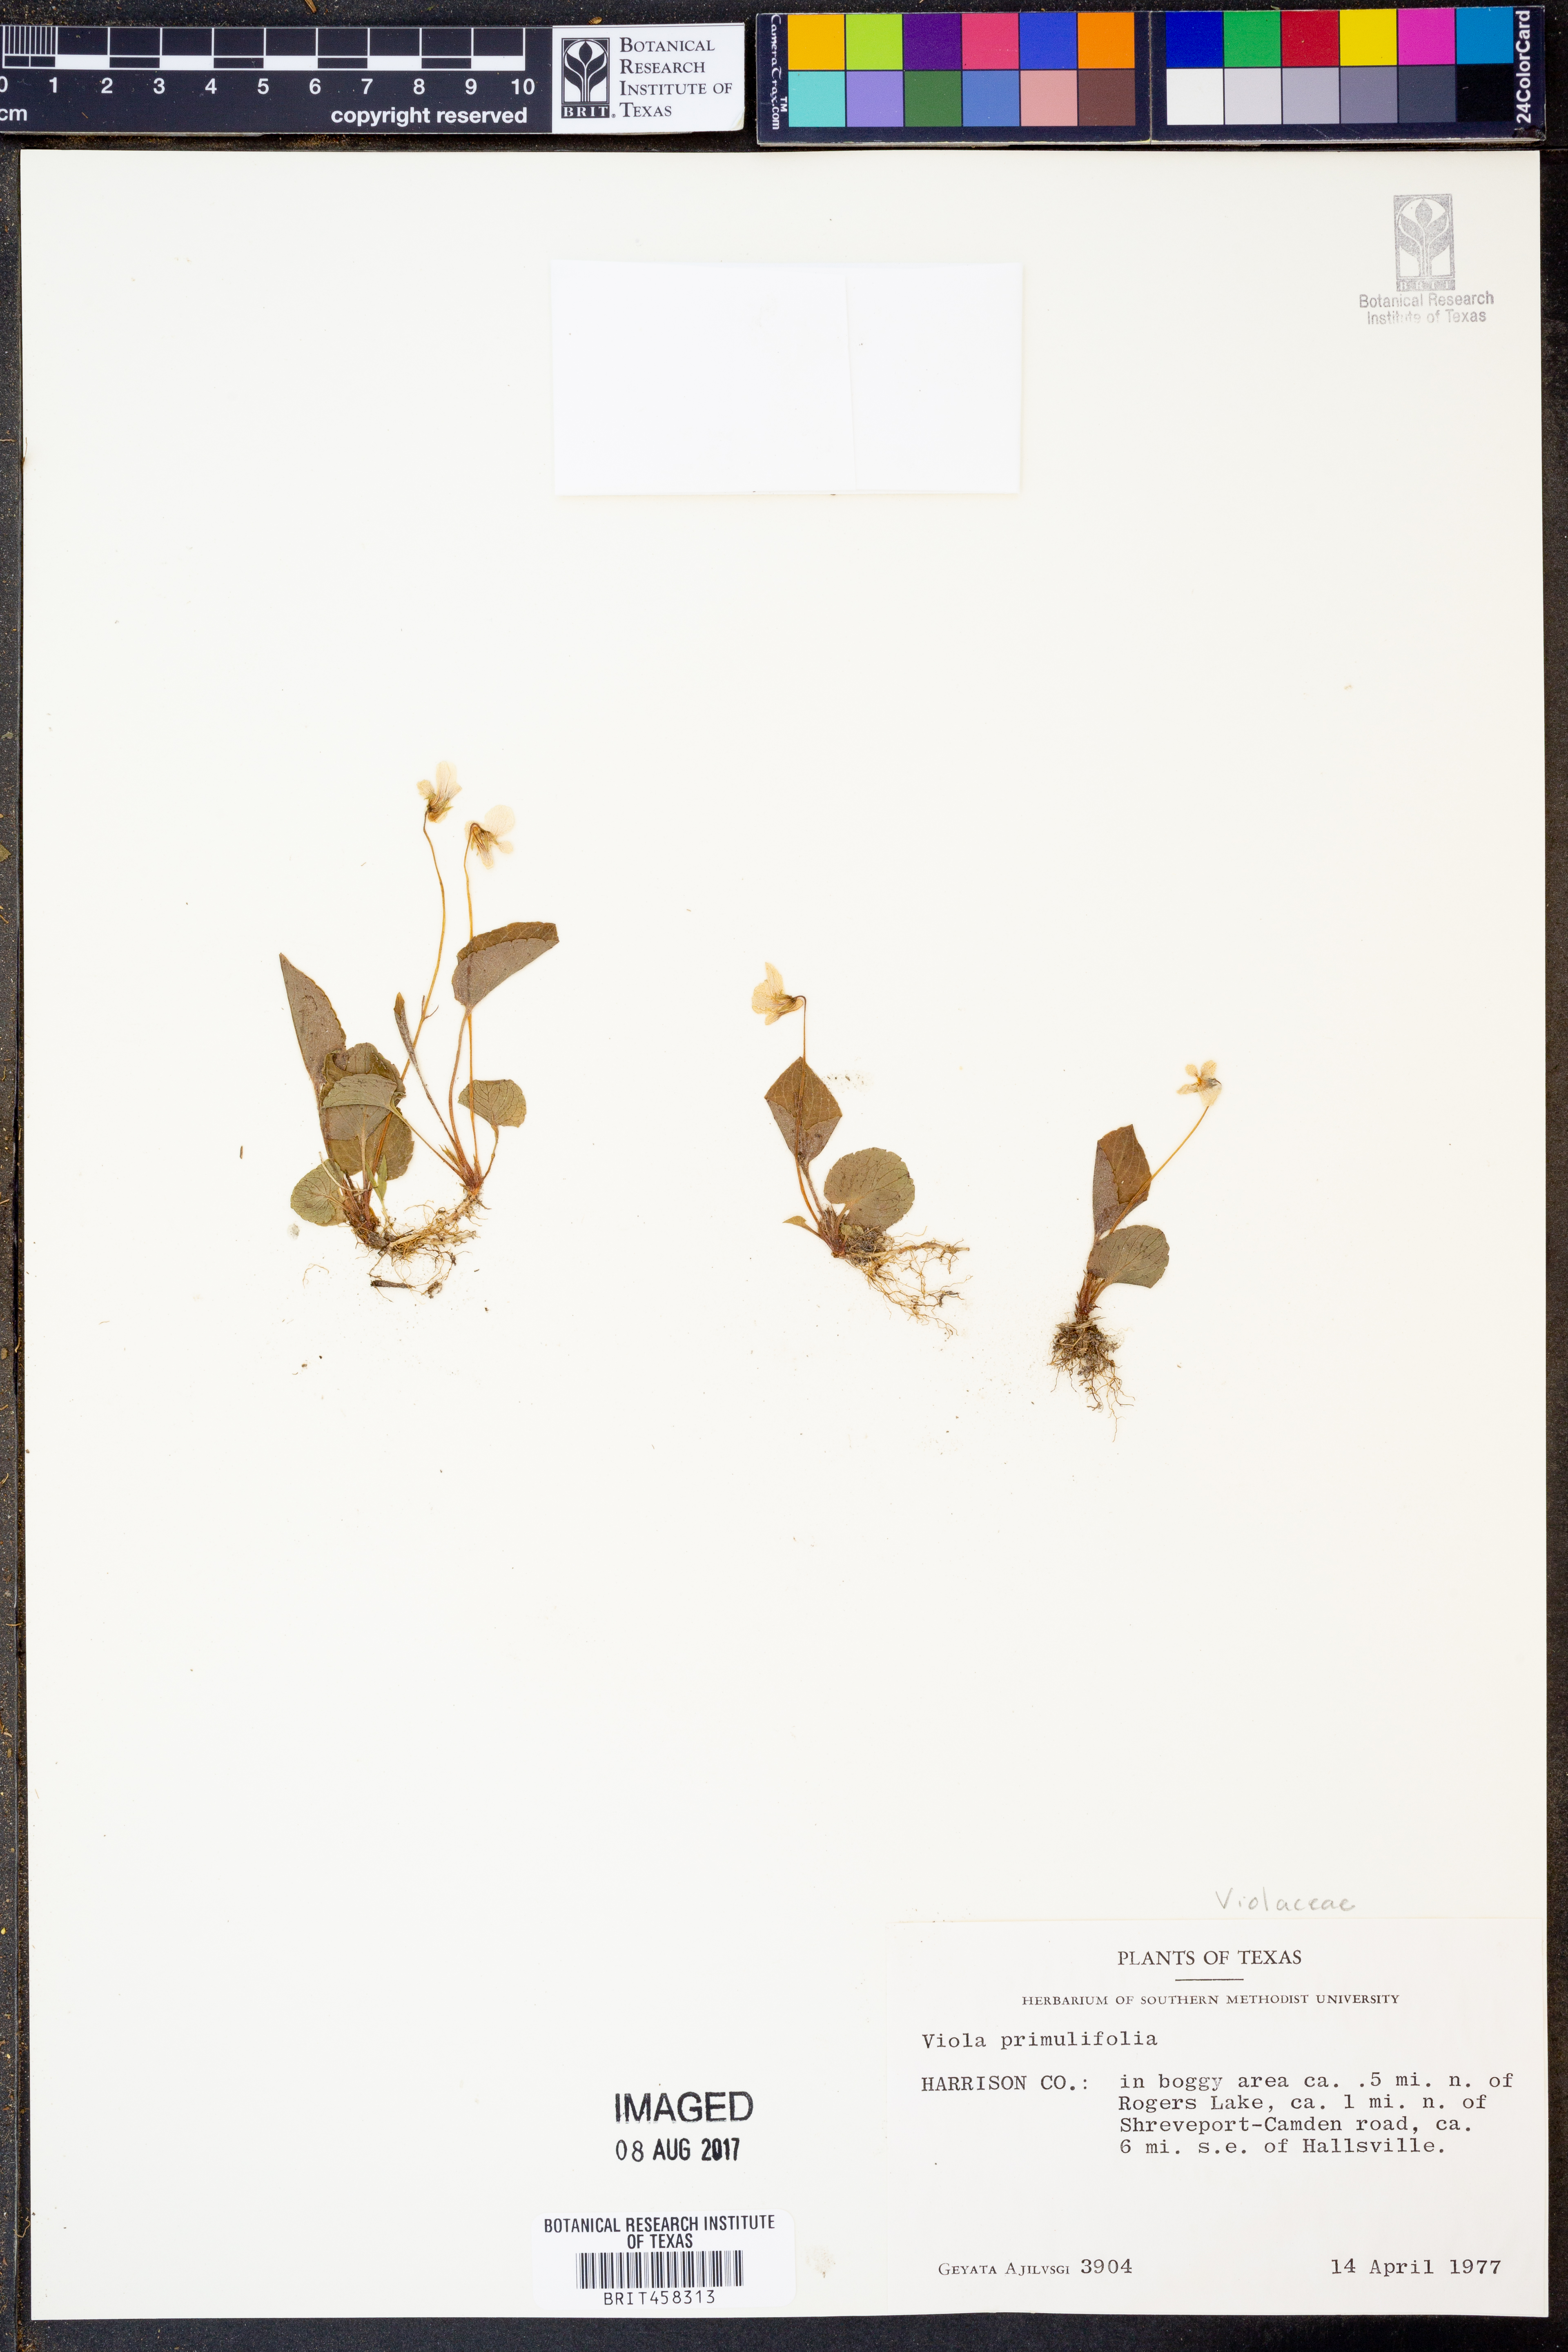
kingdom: Plantae
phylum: Tracheophyta
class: Magnoliopsida
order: Malpighiales
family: Violaceae
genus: Viola
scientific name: Viola primulifolia
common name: Primrose-leaf violet
